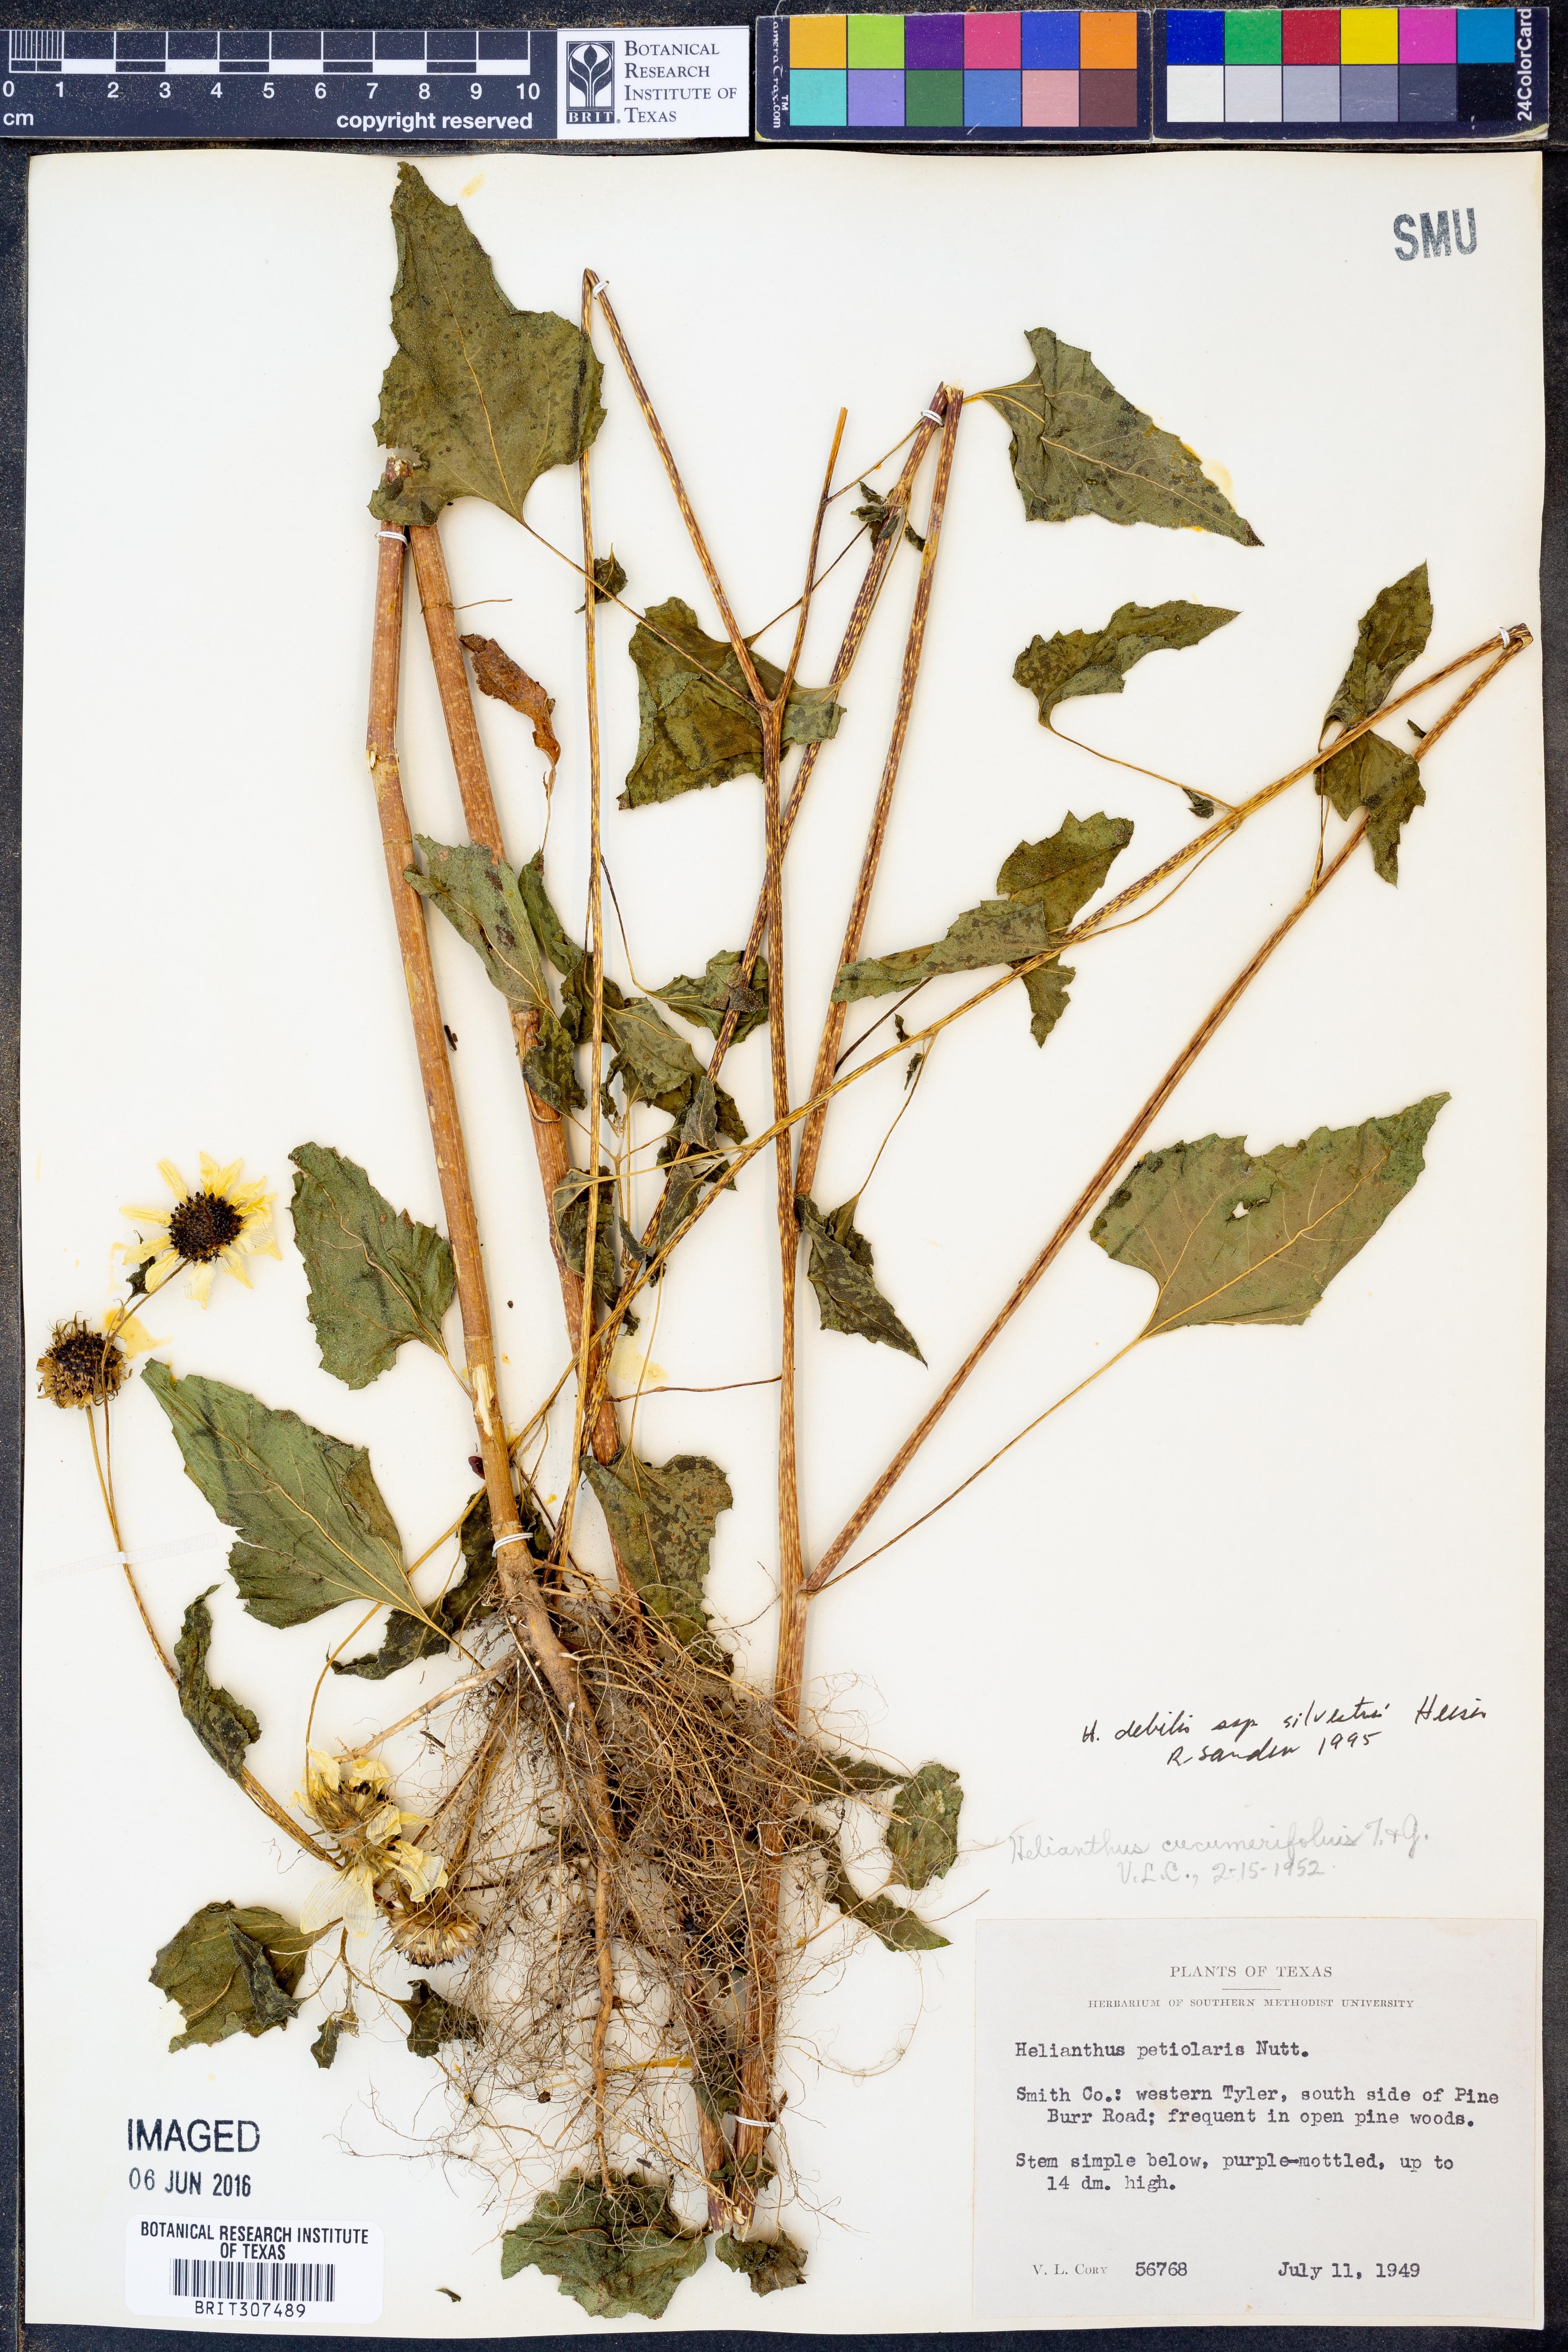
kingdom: Plantae
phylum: Tracheophyta
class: Magnoliopsida
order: Asterales
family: Asteraceae
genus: Helianthus
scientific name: Helianthus debilis
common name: Weak sunflower
